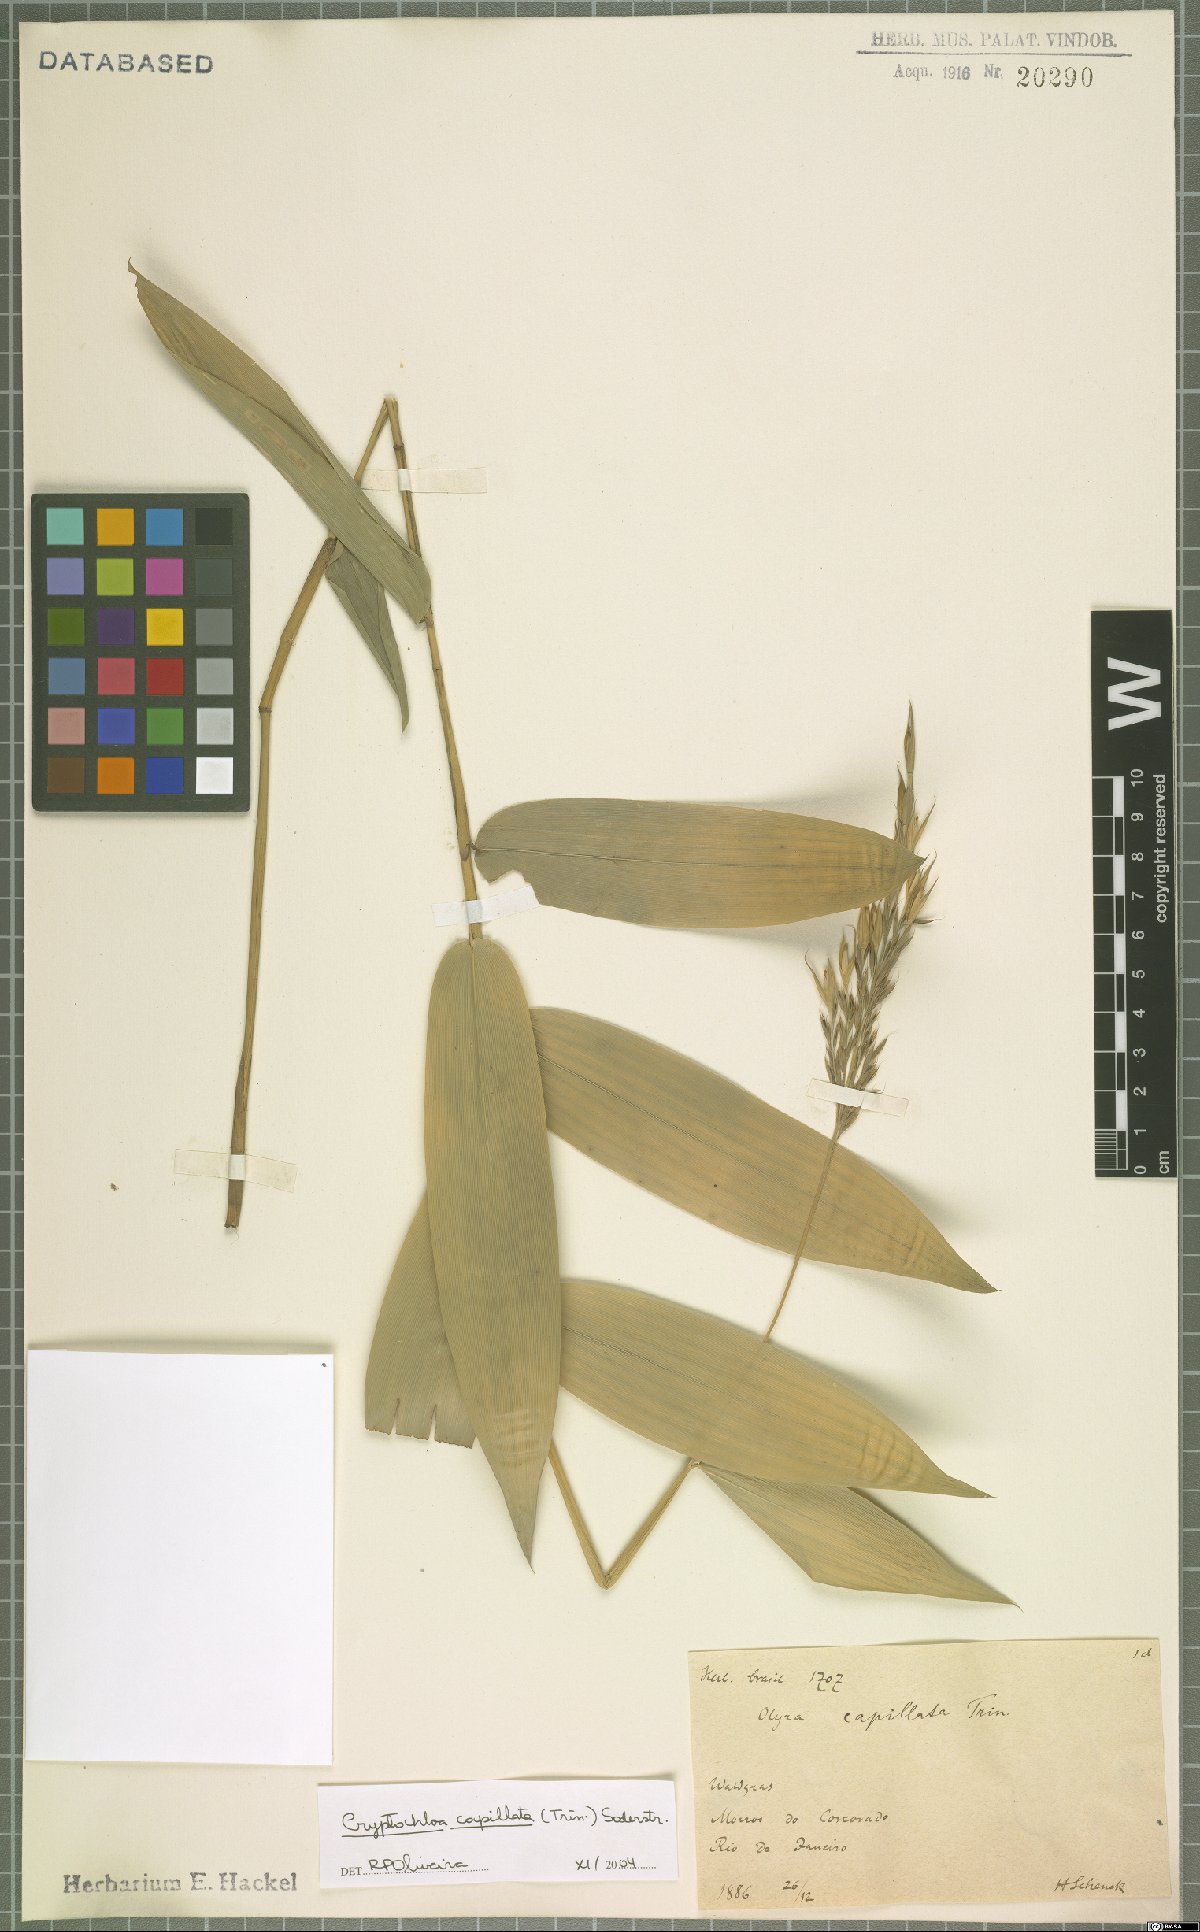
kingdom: Plantae
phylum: Tracheophyta
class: Liliopsida
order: Poales
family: Poaceae
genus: Cryptochloa
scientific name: Cryptochloa capillata
